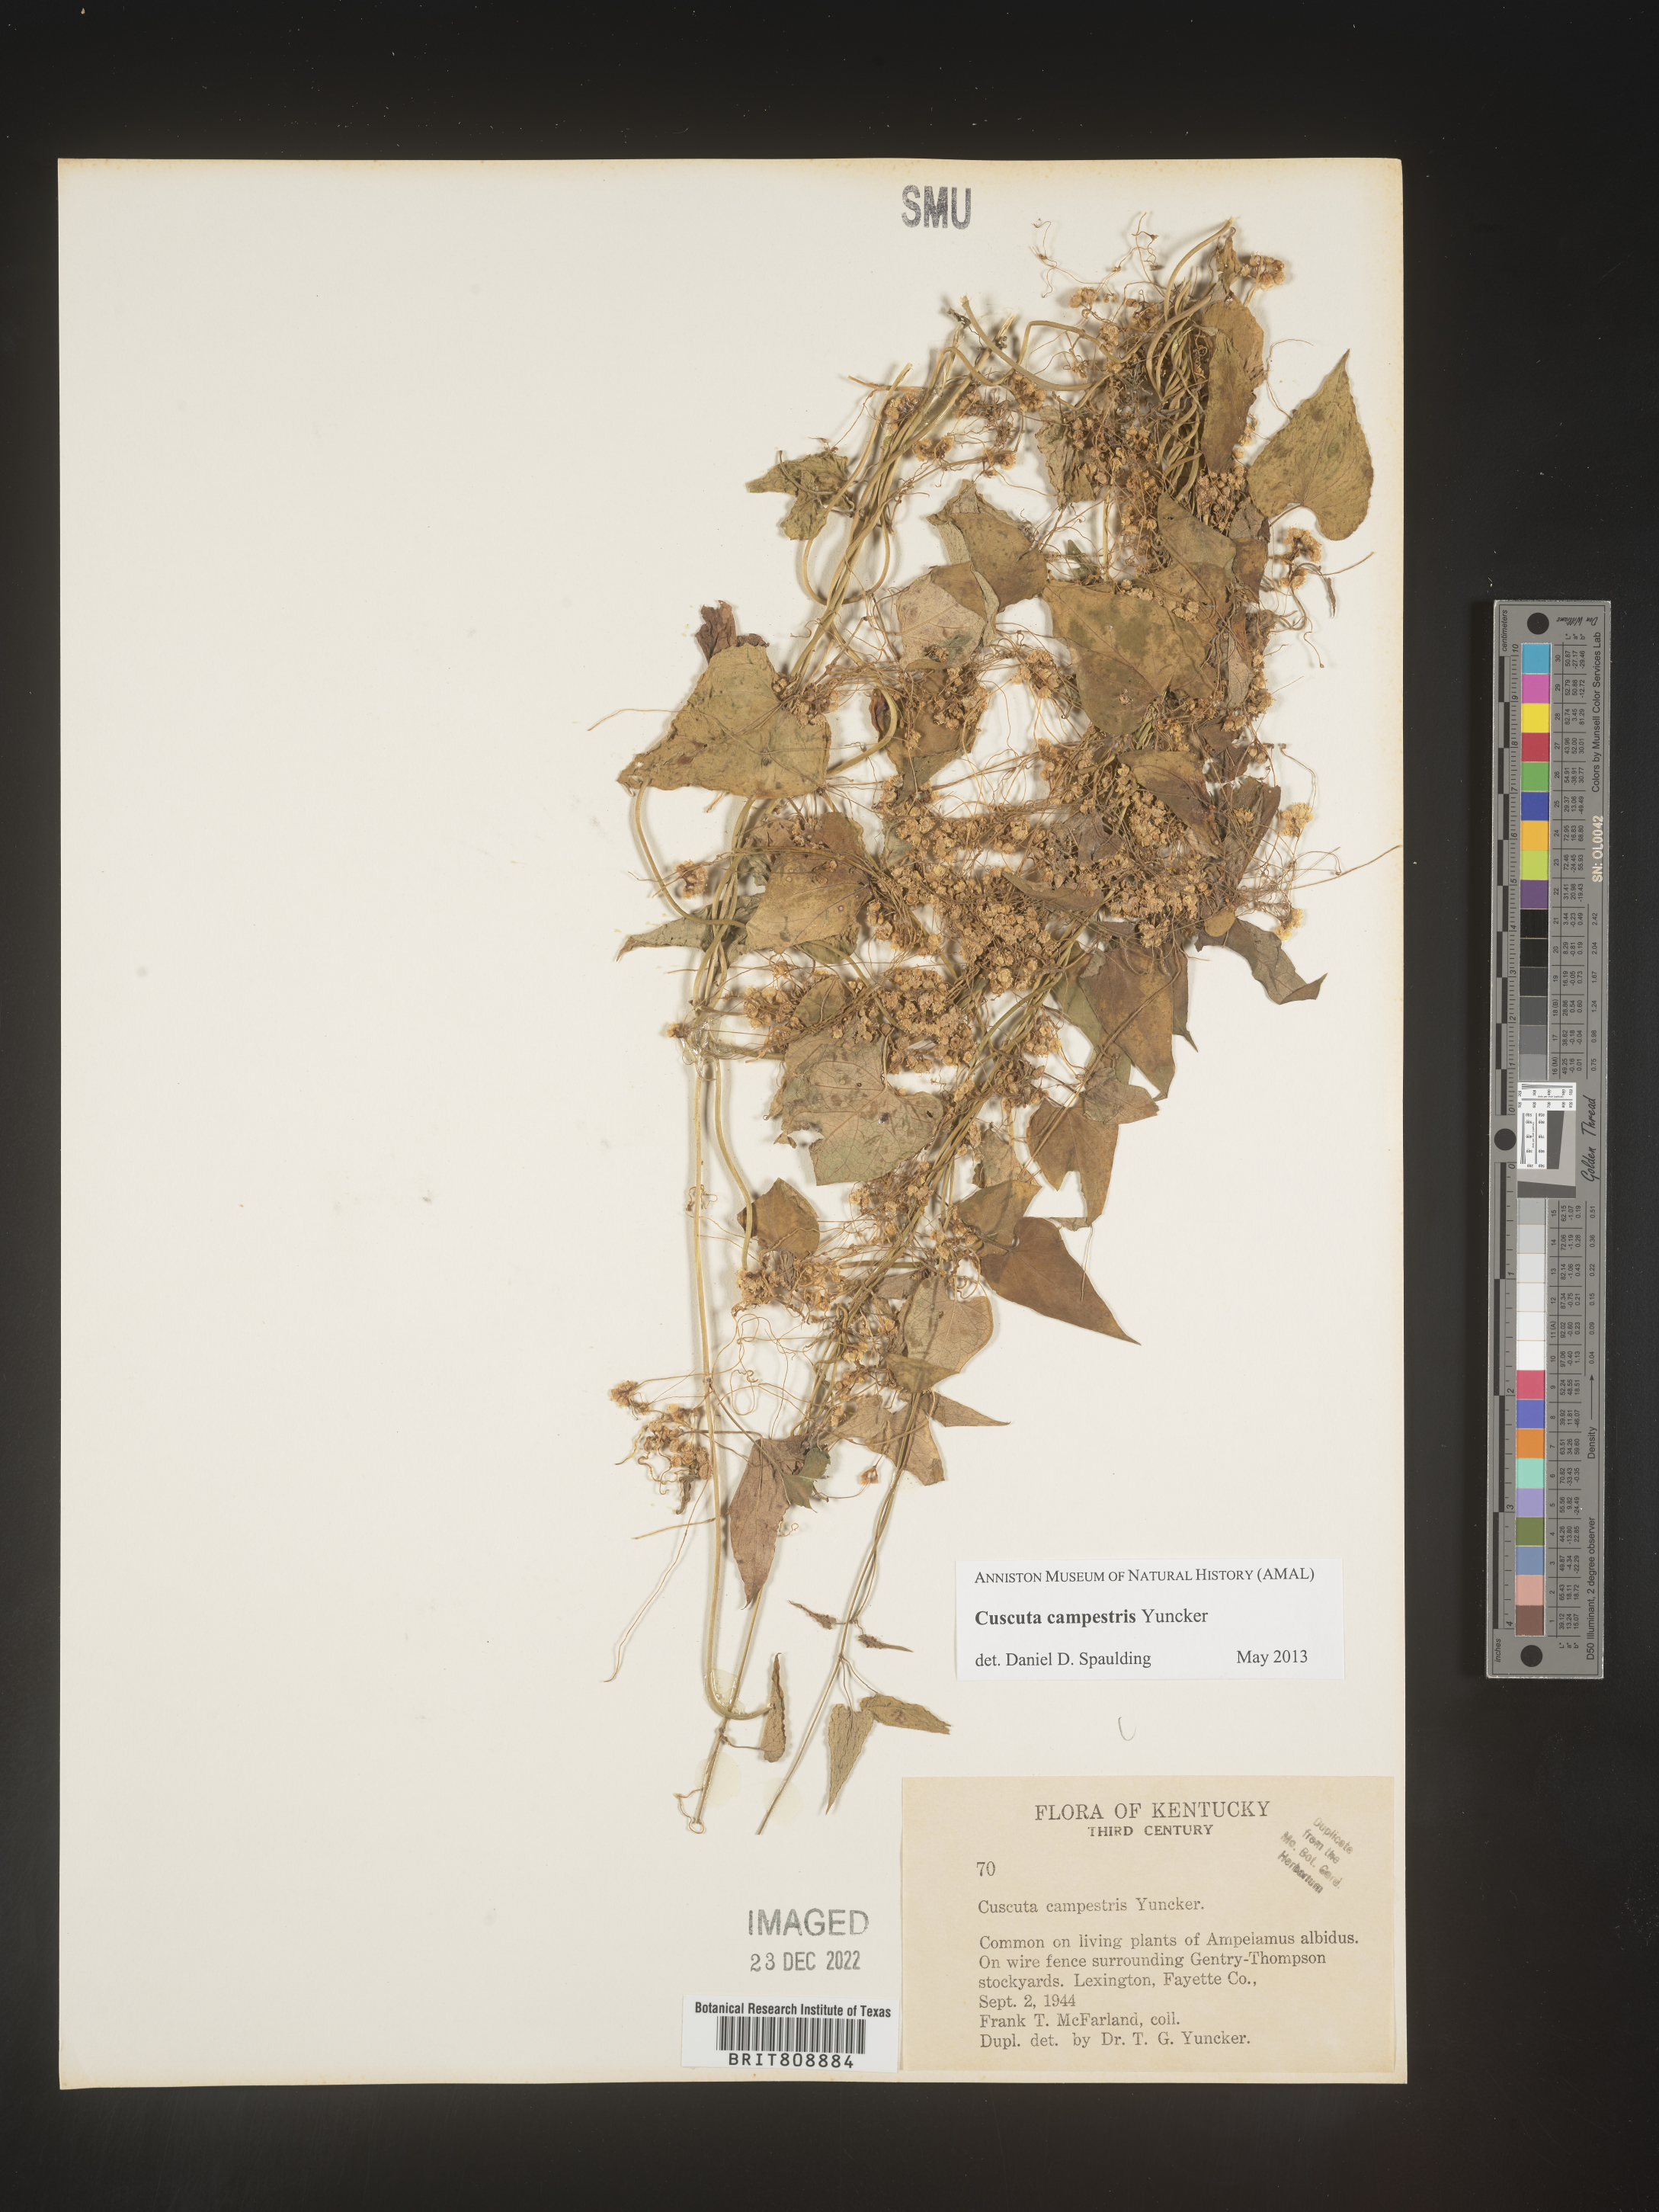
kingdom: Plantae
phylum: Tracheophyta
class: Magnoliopsida
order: Solanales
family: Convolvulaceae
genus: Cuscuta
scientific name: Cuscuta campestris
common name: Yellow dodder
